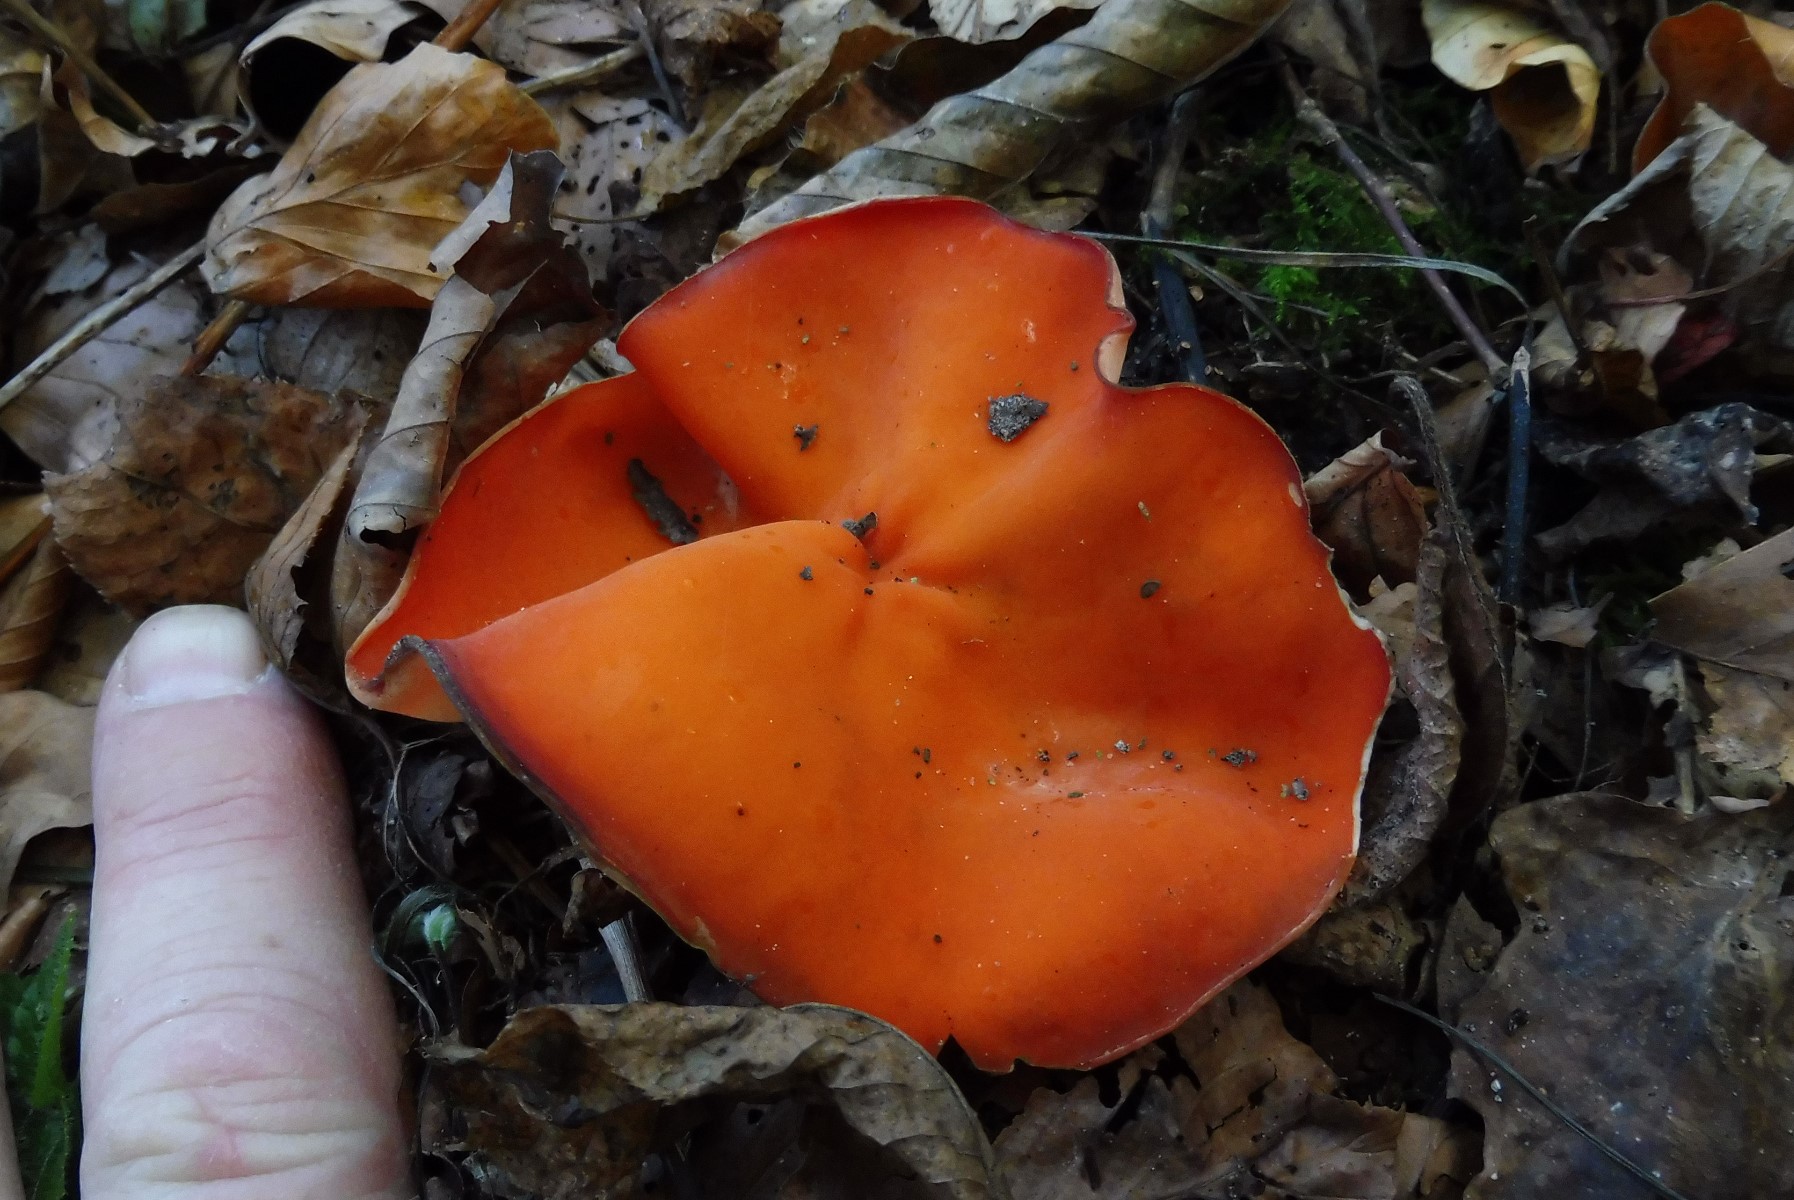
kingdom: Fungi
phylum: Ascomycota
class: Pezizomycetes
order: Pezizales
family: Pyronemataceae
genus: Aleuria
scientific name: Aleuria aurantia
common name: almindelig orangebæger
